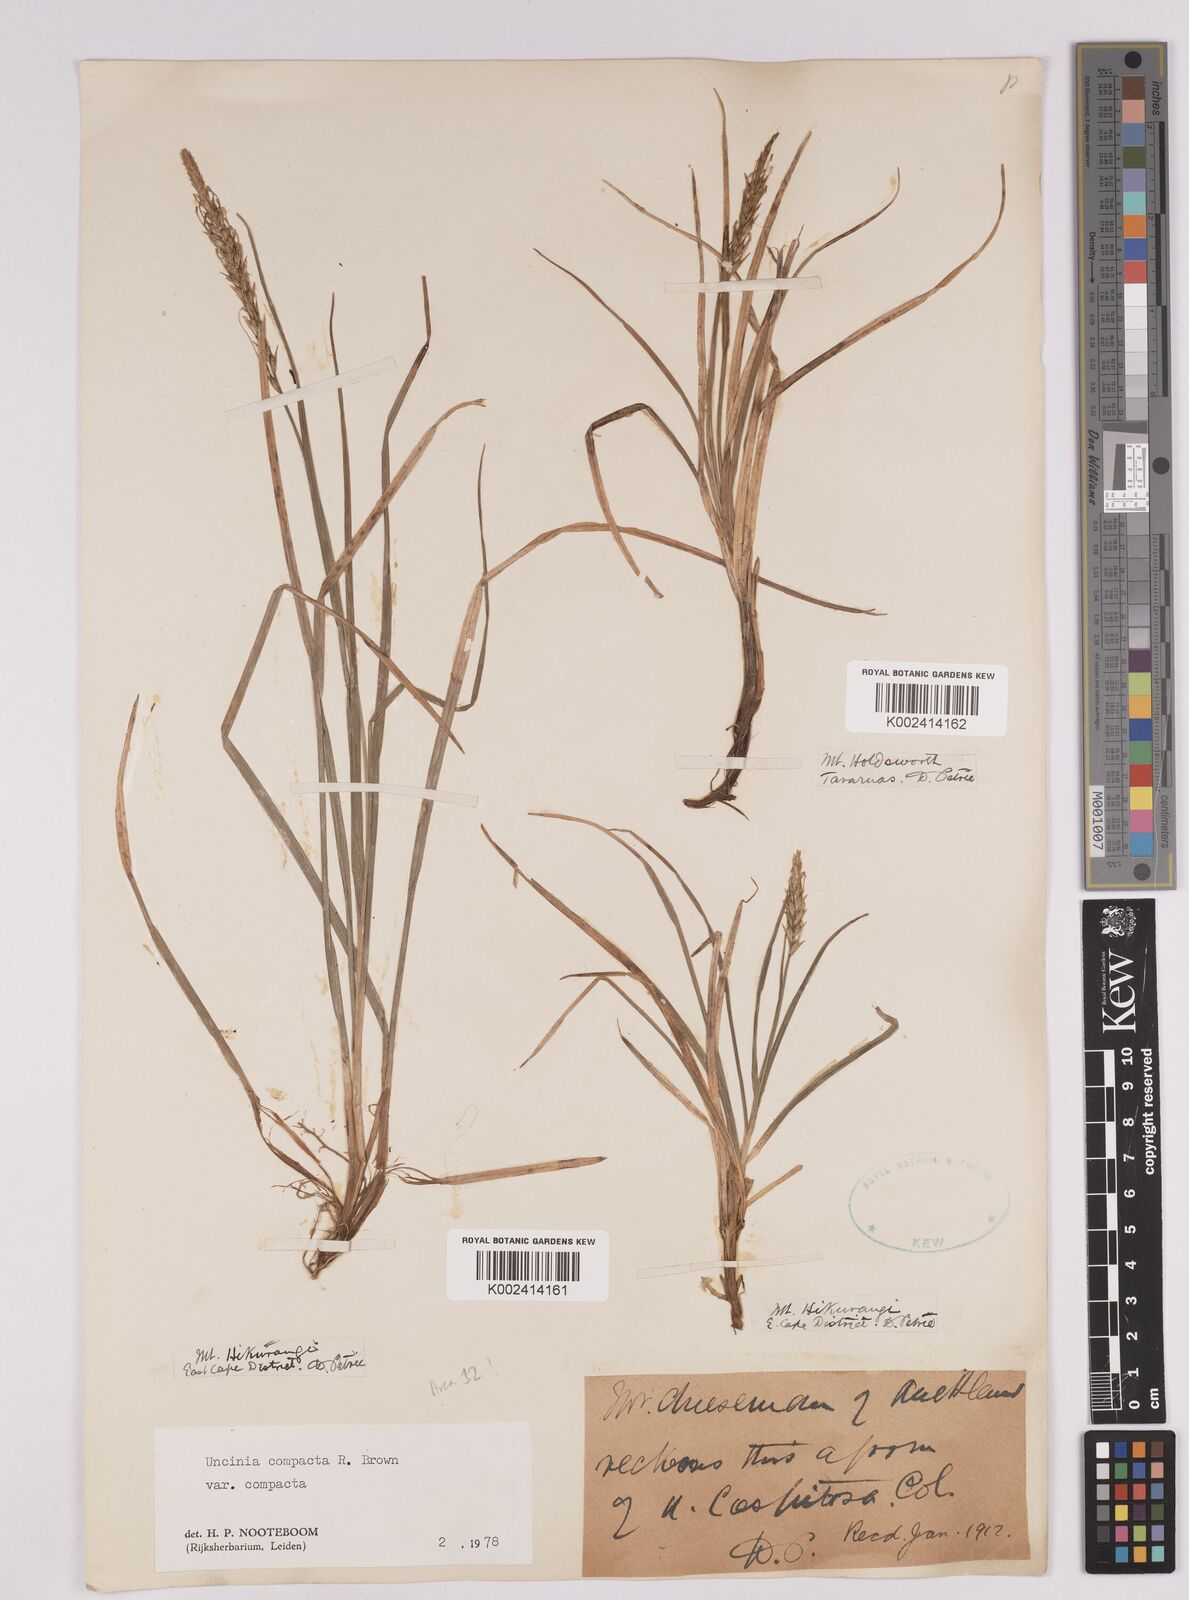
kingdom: Plantae
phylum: Tracheophyta
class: Liliopsida
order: Poales
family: Cyperaceae
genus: Carex
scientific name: Carex austrocompacta
